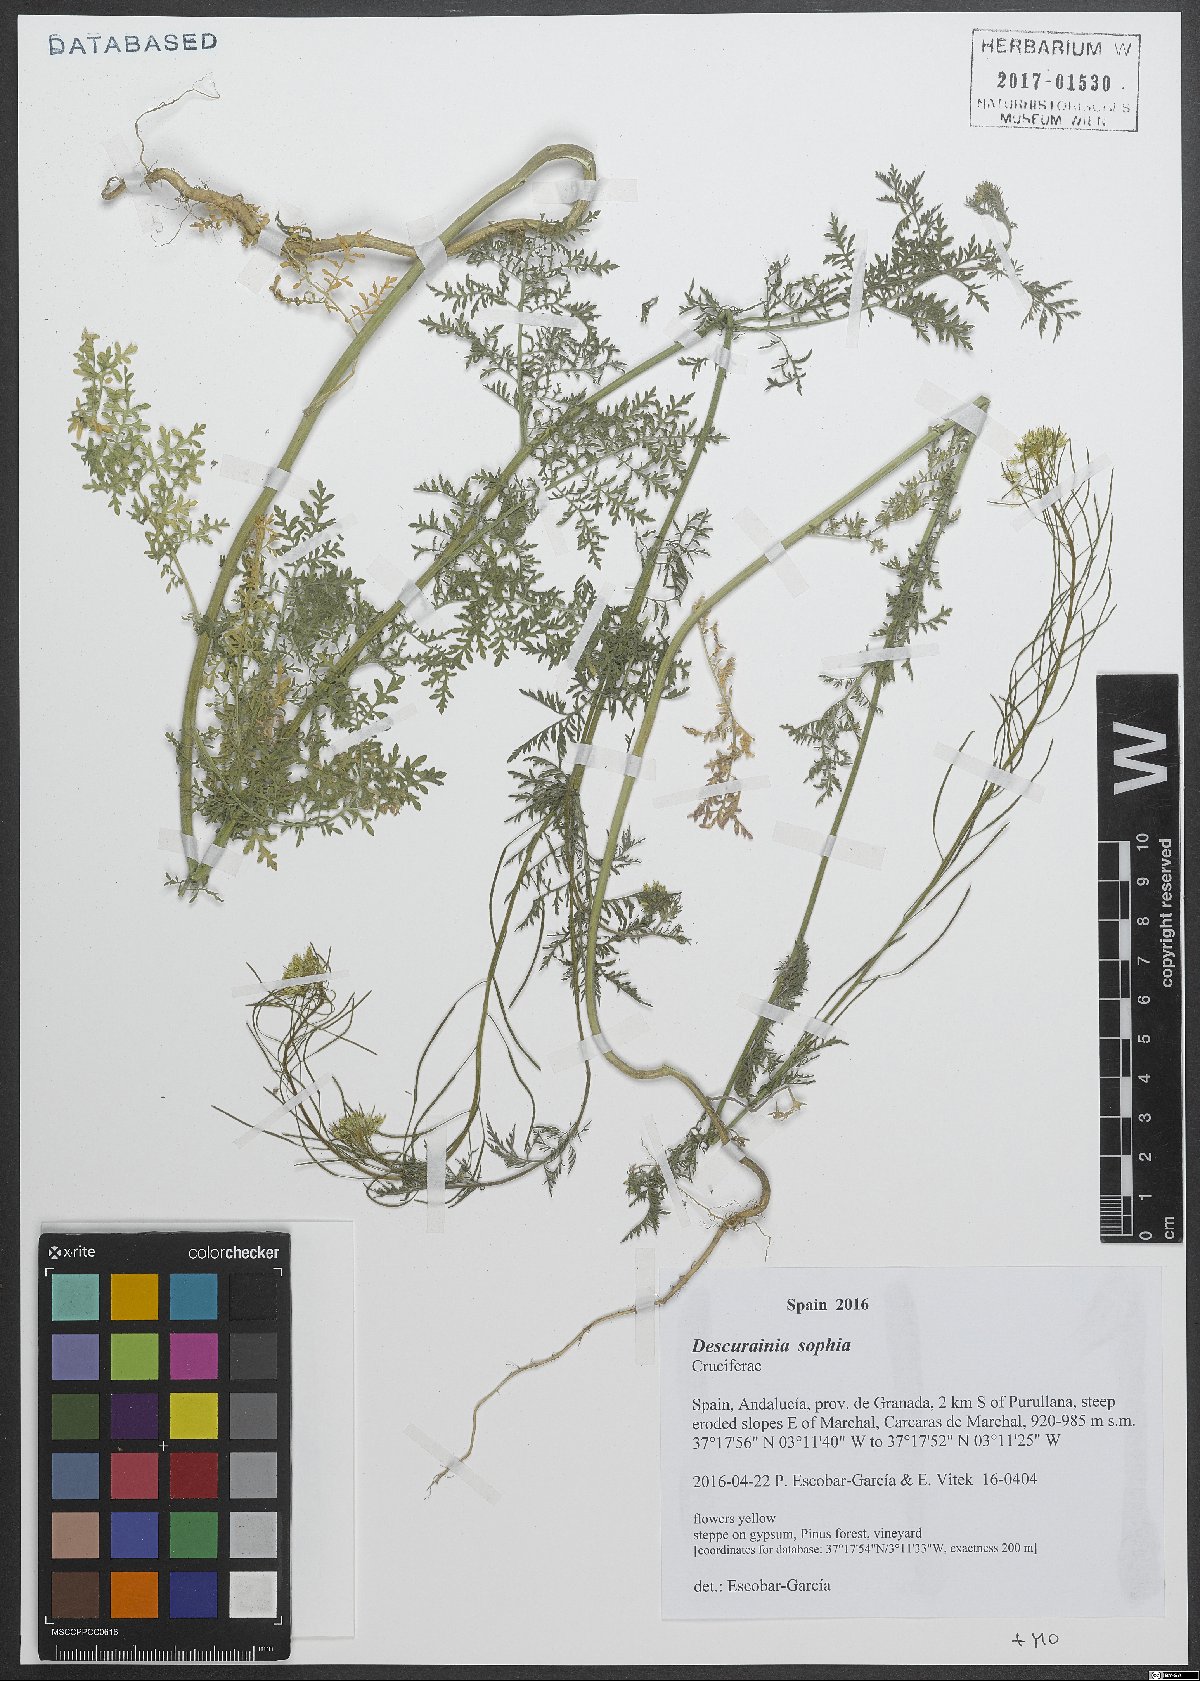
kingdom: Plantae
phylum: Tracheophyta
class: Magnoliopsida
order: Brassicales
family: Brassicaceae
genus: Descurainia
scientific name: Descurainia sophia
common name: Flixweed
